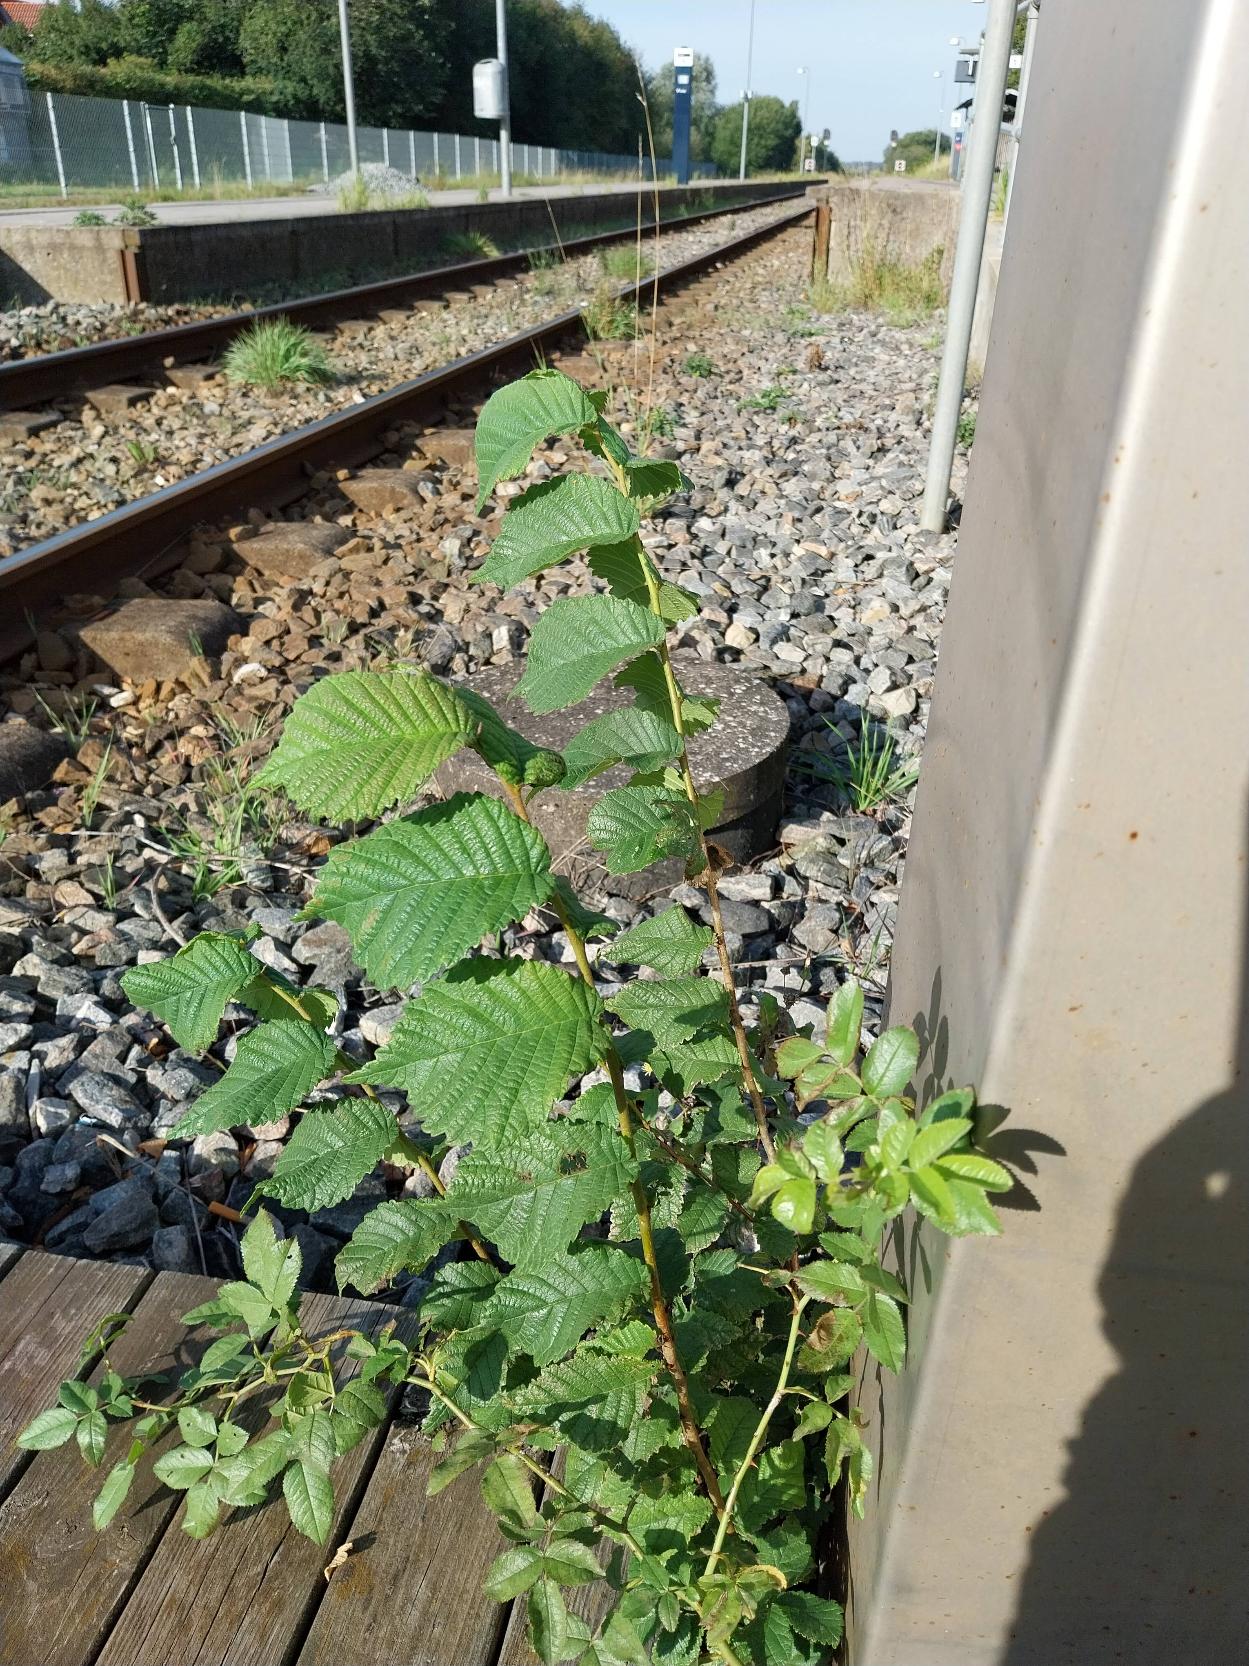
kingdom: Plantae
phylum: Tracheophyta
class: Magnoliopsida
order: Rosales
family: Ulmaceae
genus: Ulmus
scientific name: Ulmus glabra
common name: Skov-elm/storbladet elm
